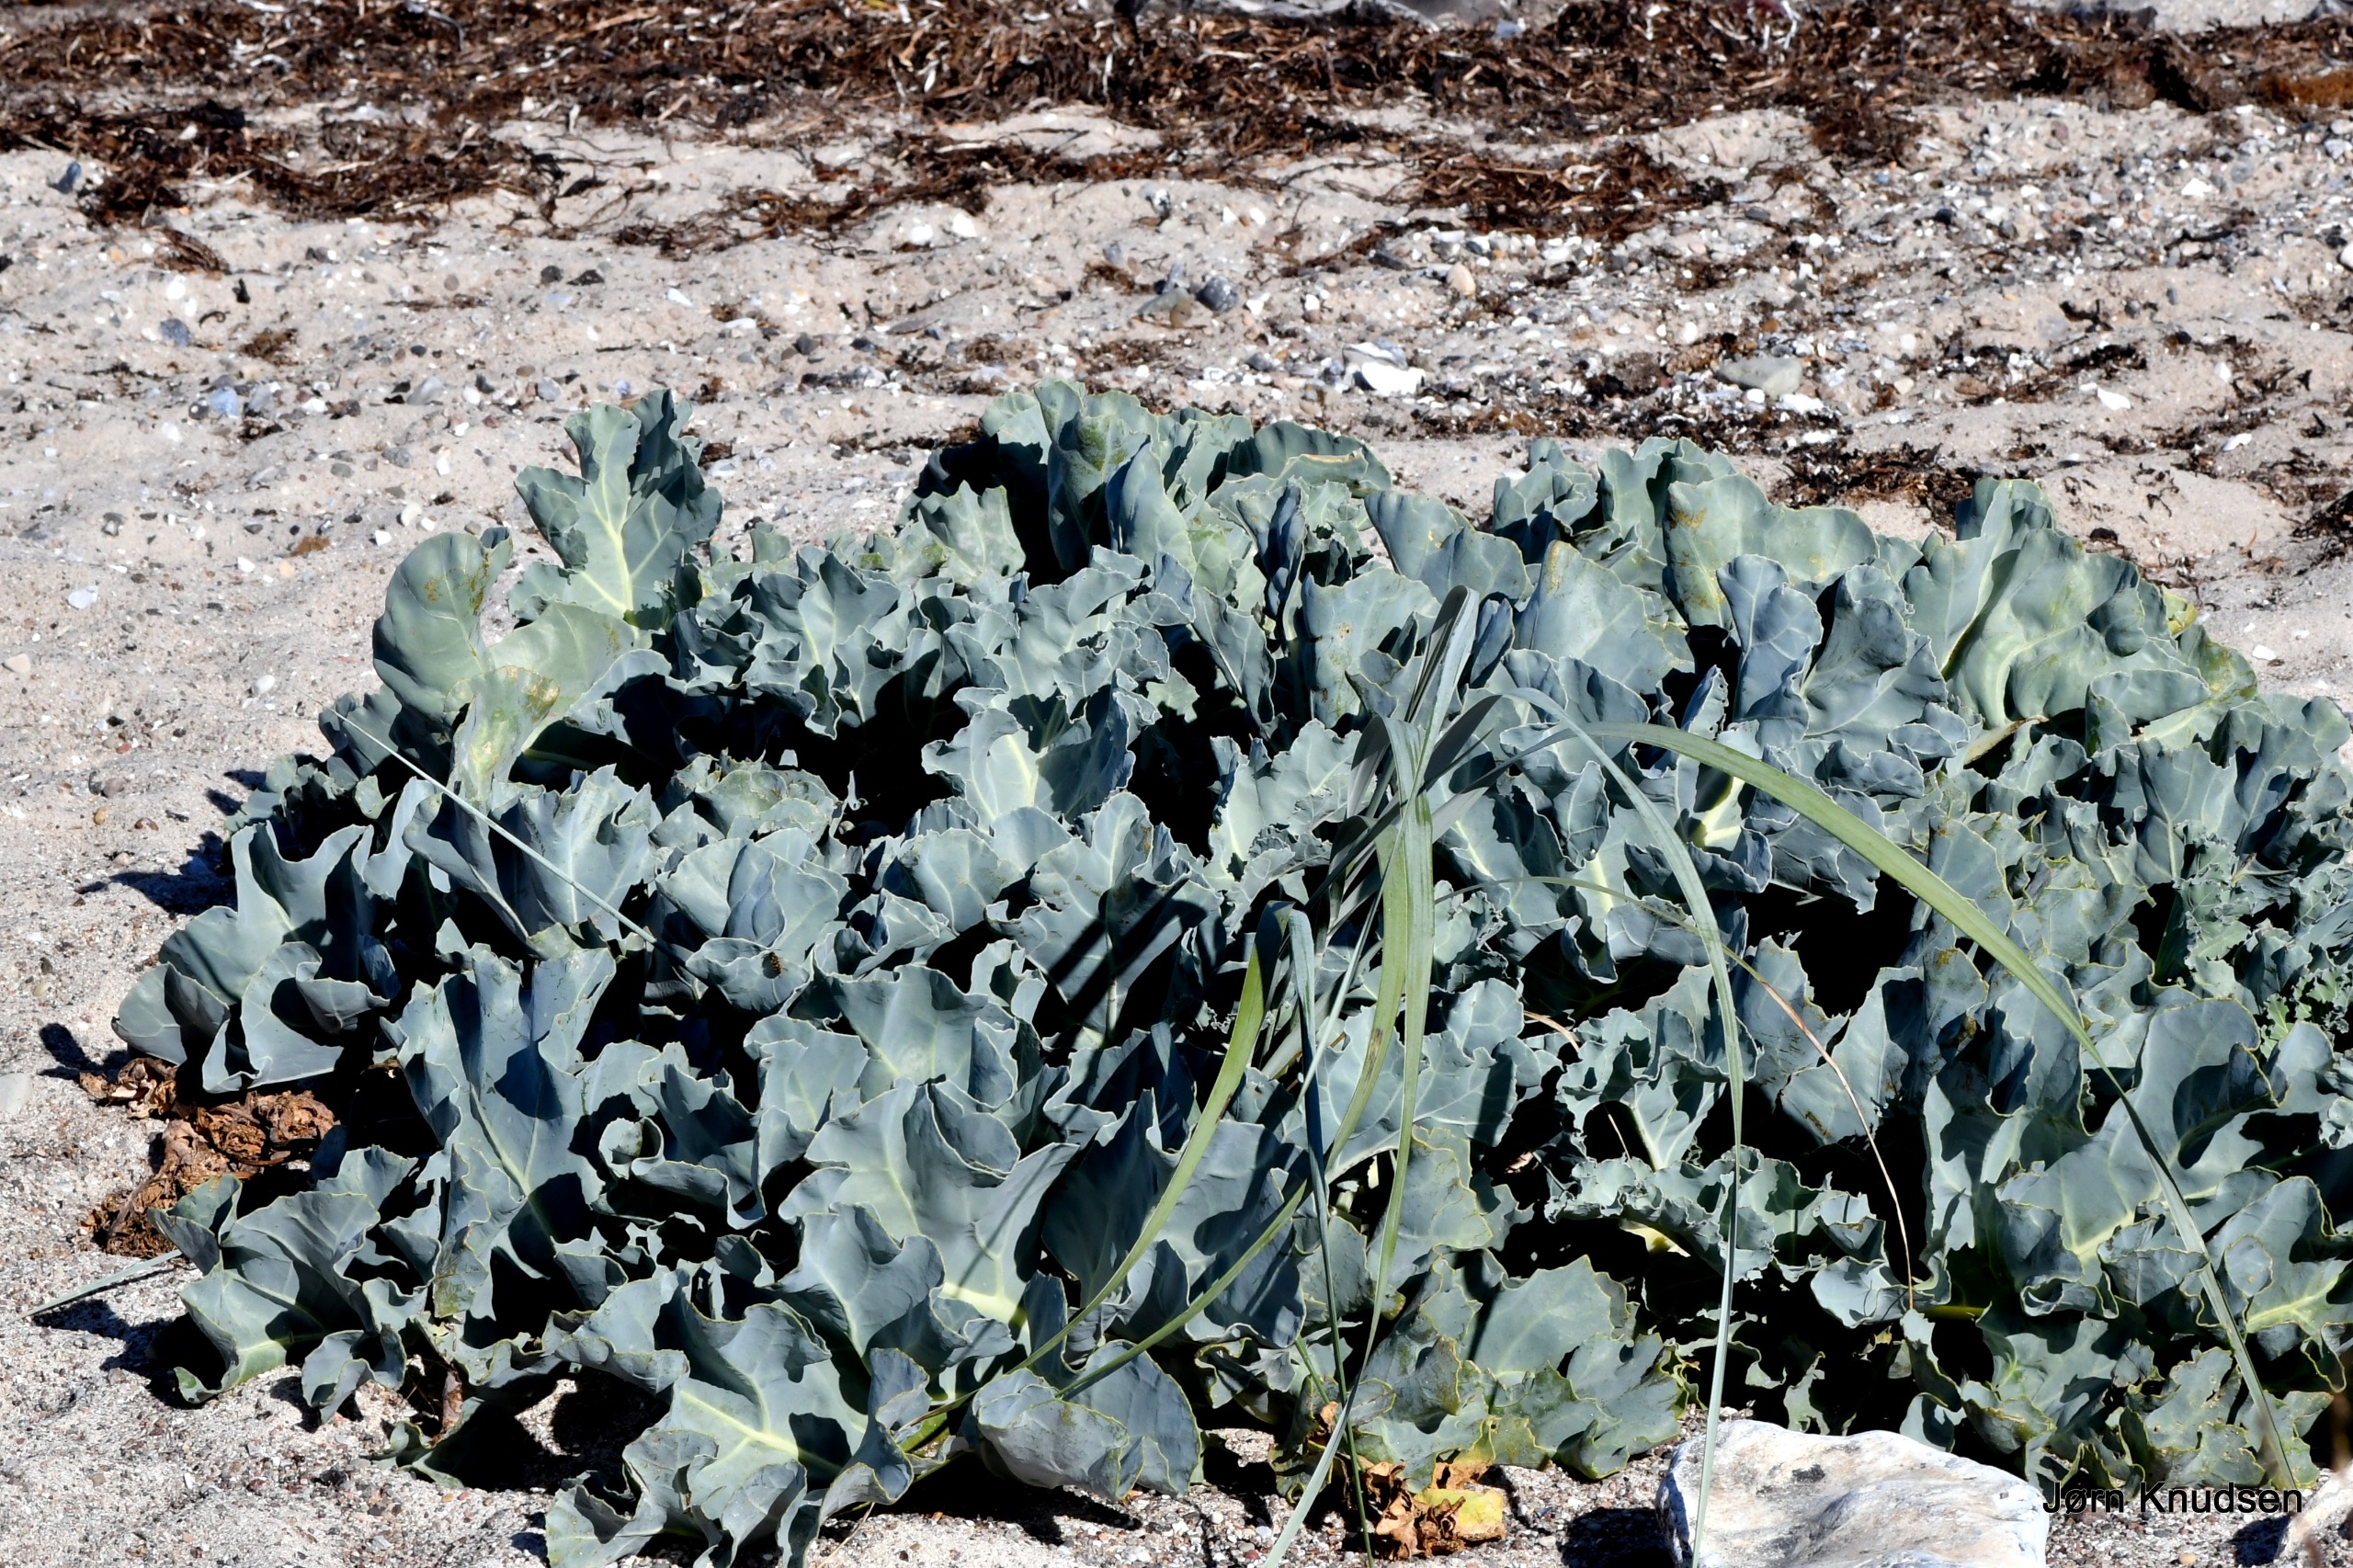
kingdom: Plantae
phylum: Tracheophyta
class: Magnoliopsida
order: Brassicales
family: Brassicaceae
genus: Crambe
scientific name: Crambe maritima
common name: Strandkål
